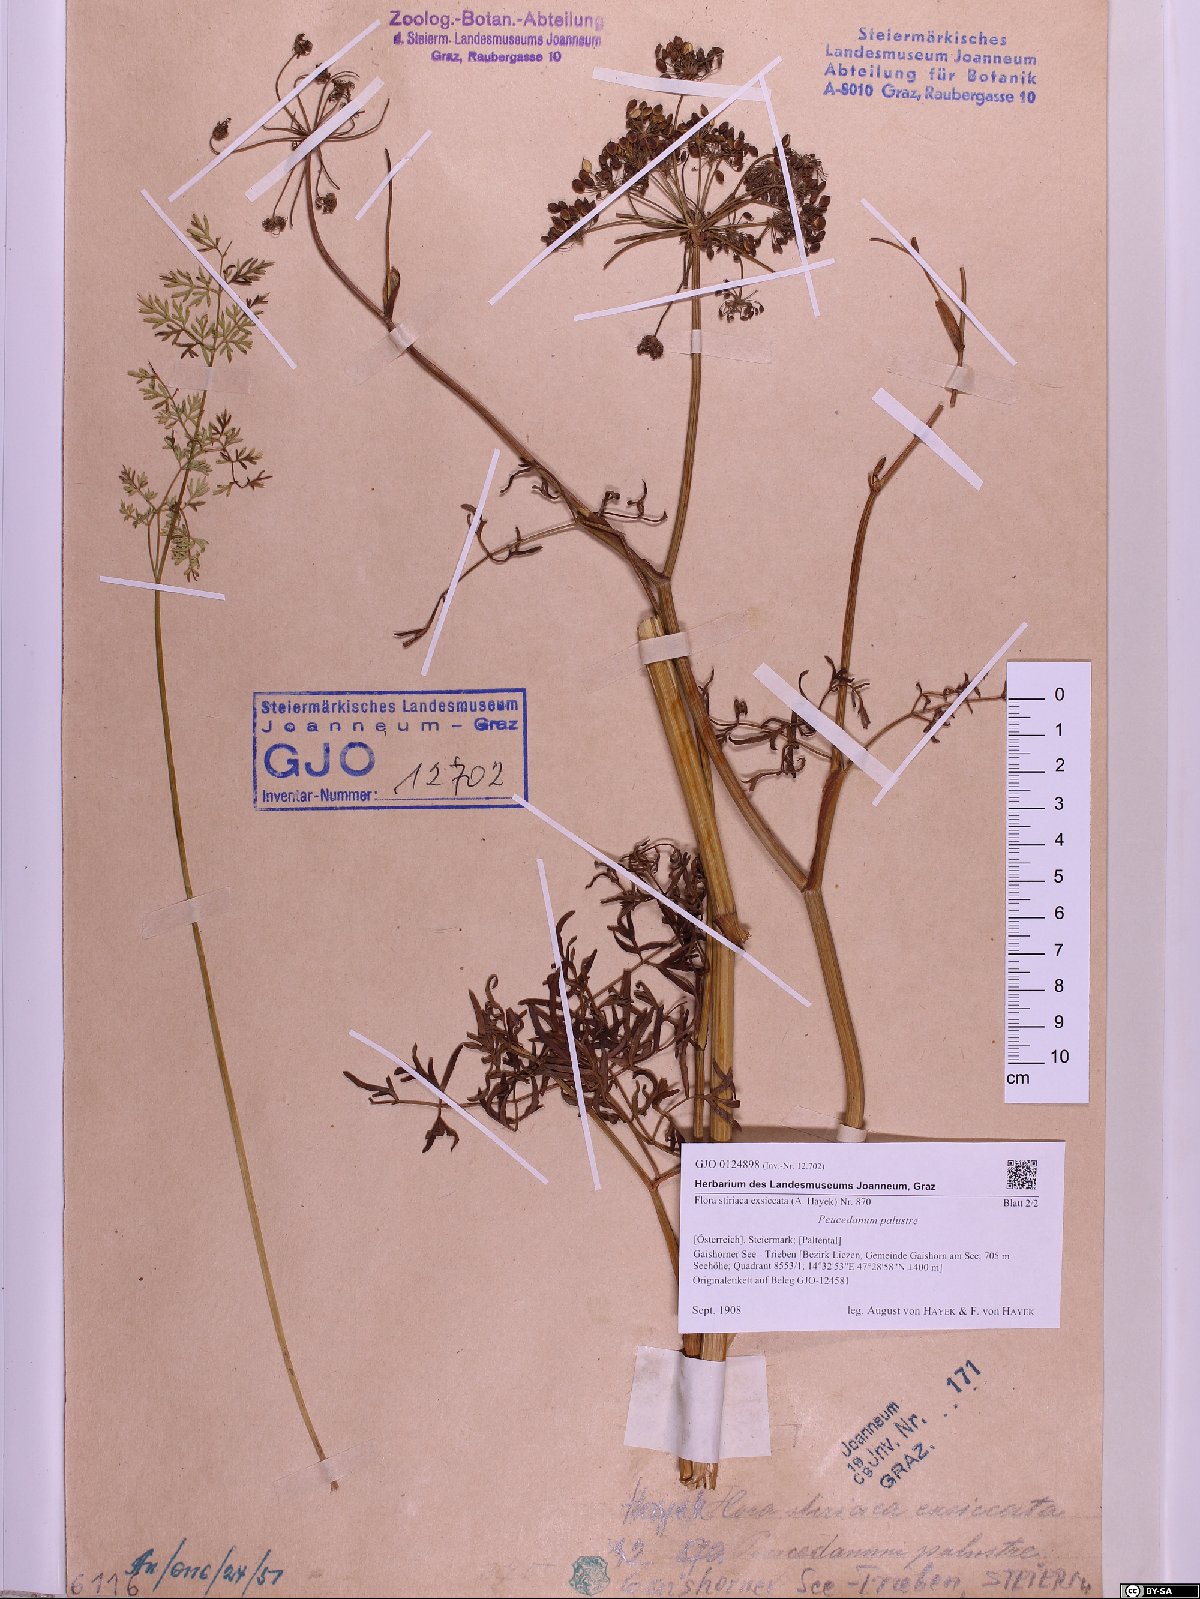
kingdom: Plantae
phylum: Tracheophyta
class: Magnoliopsida
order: Apiales
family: Apiaceae
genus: Thysselinum
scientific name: Thysselinum palustre
